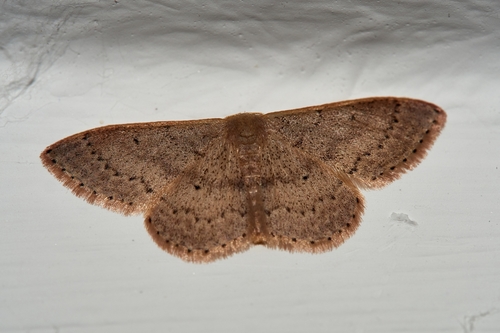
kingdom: Animalia
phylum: Arthropoda
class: Insecta
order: Lepidoptera
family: Geometridae
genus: Idaea
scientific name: Idaea predotaria
